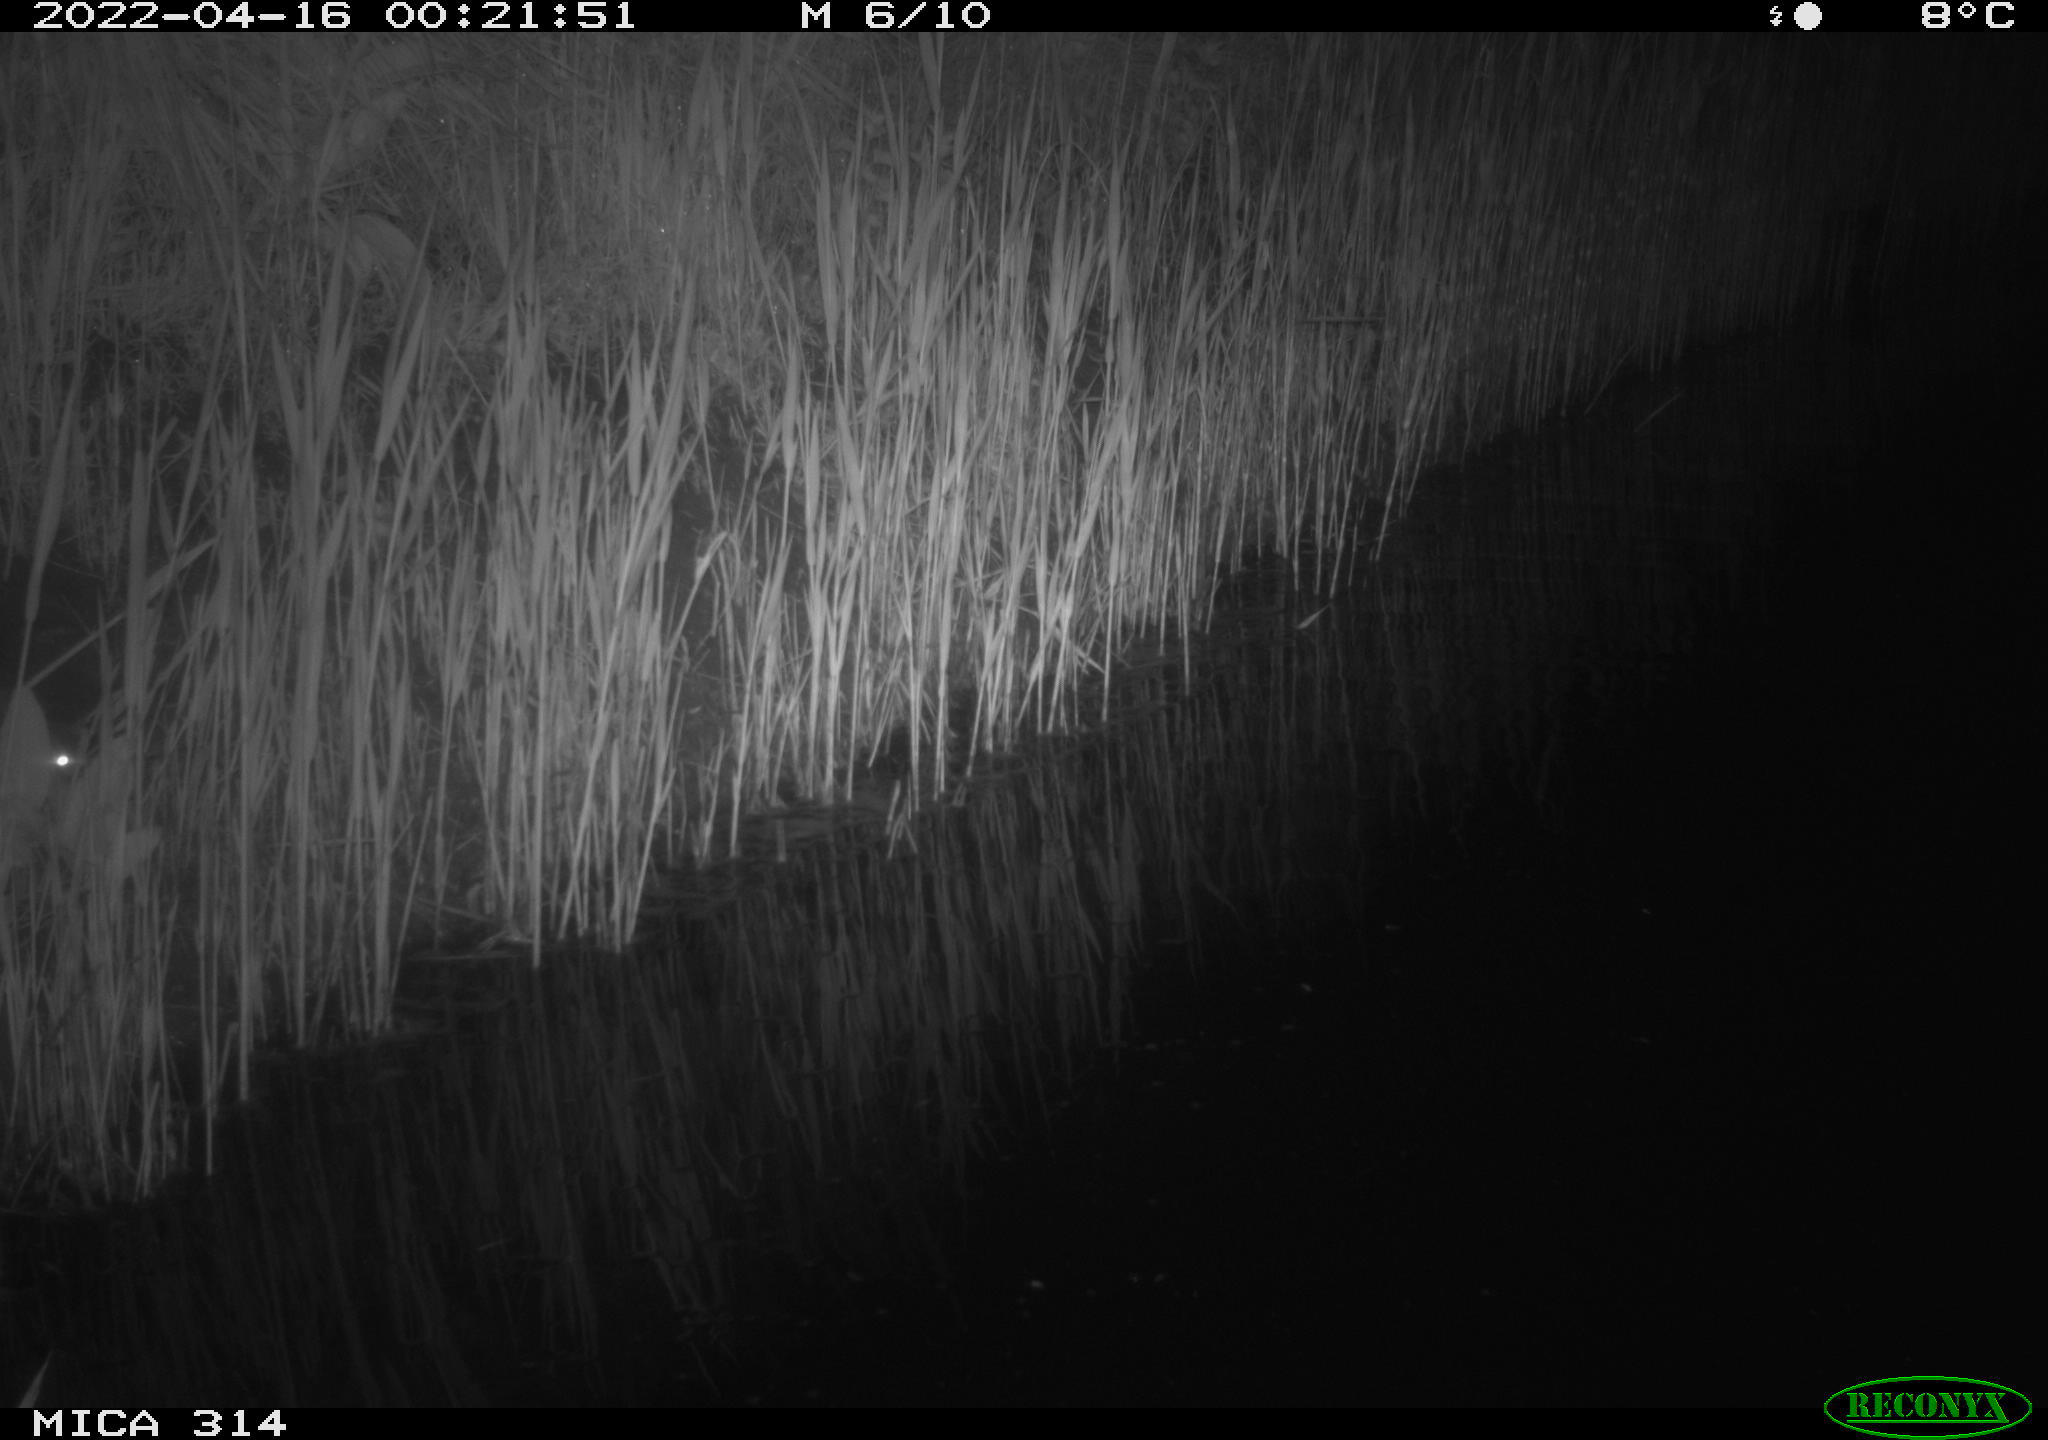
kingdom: Animalia
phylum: Chordata
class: Mammalia
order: Rodentia
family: Cricetidae
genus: Ondatra
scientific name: Ondatra zibethicus
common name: Muskrat
